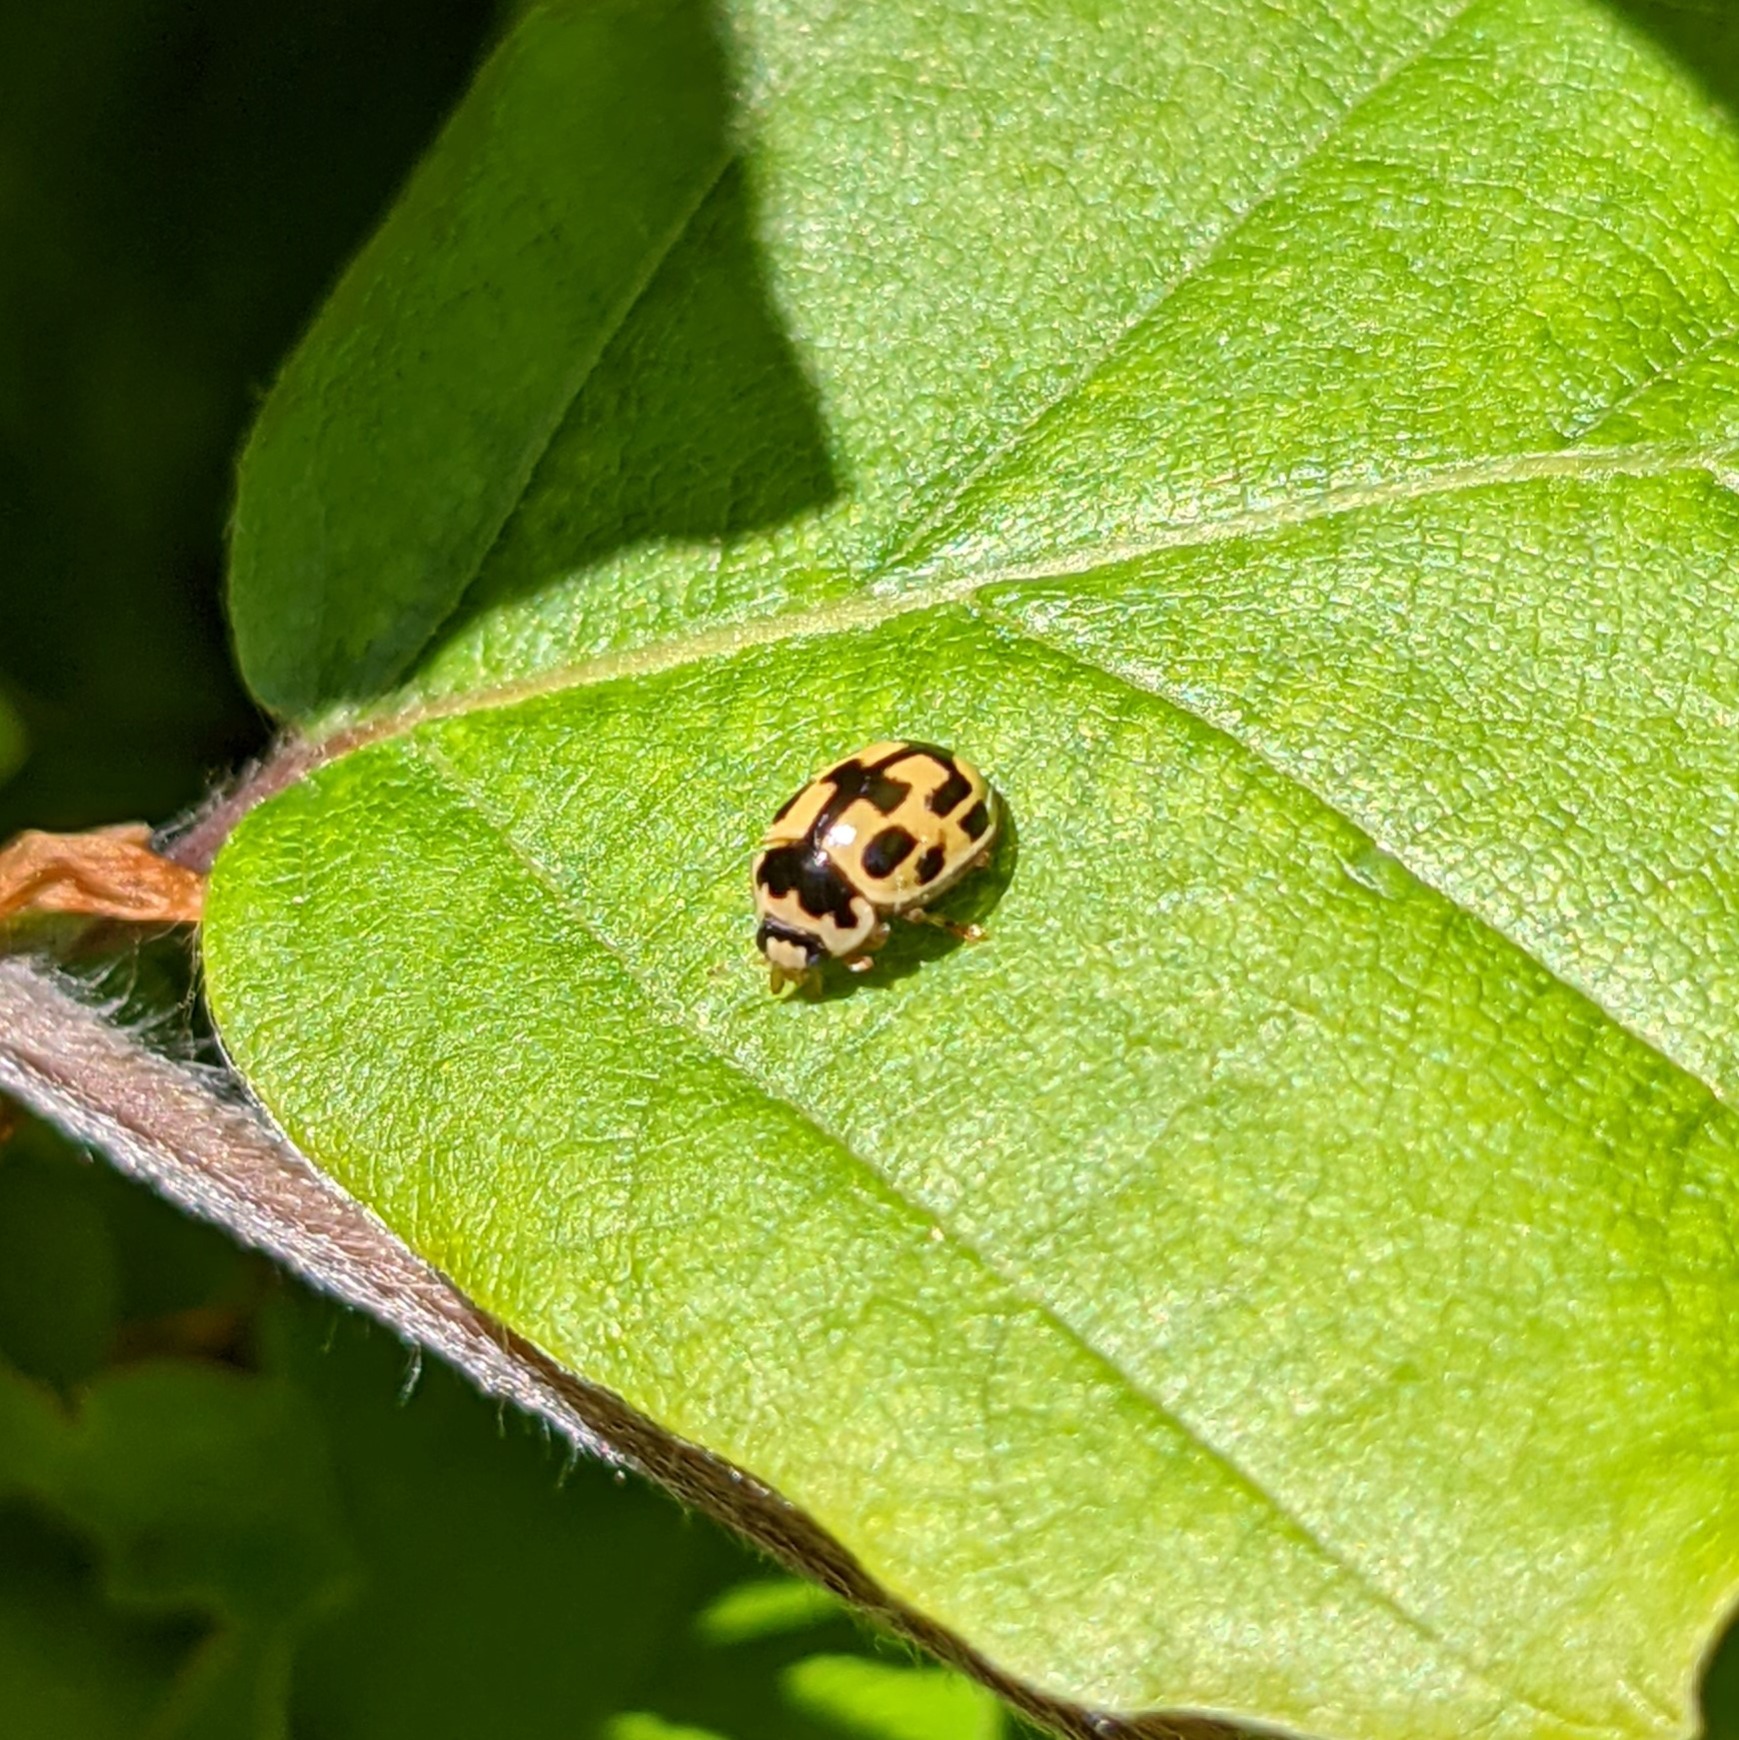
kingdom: Animalia
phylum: Arthropoda
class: Insecta
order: Coleoptera
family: Coccinellidae
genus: Propylaea
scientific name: Propylaea quatuordecimpunctata
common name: Skakbræt
